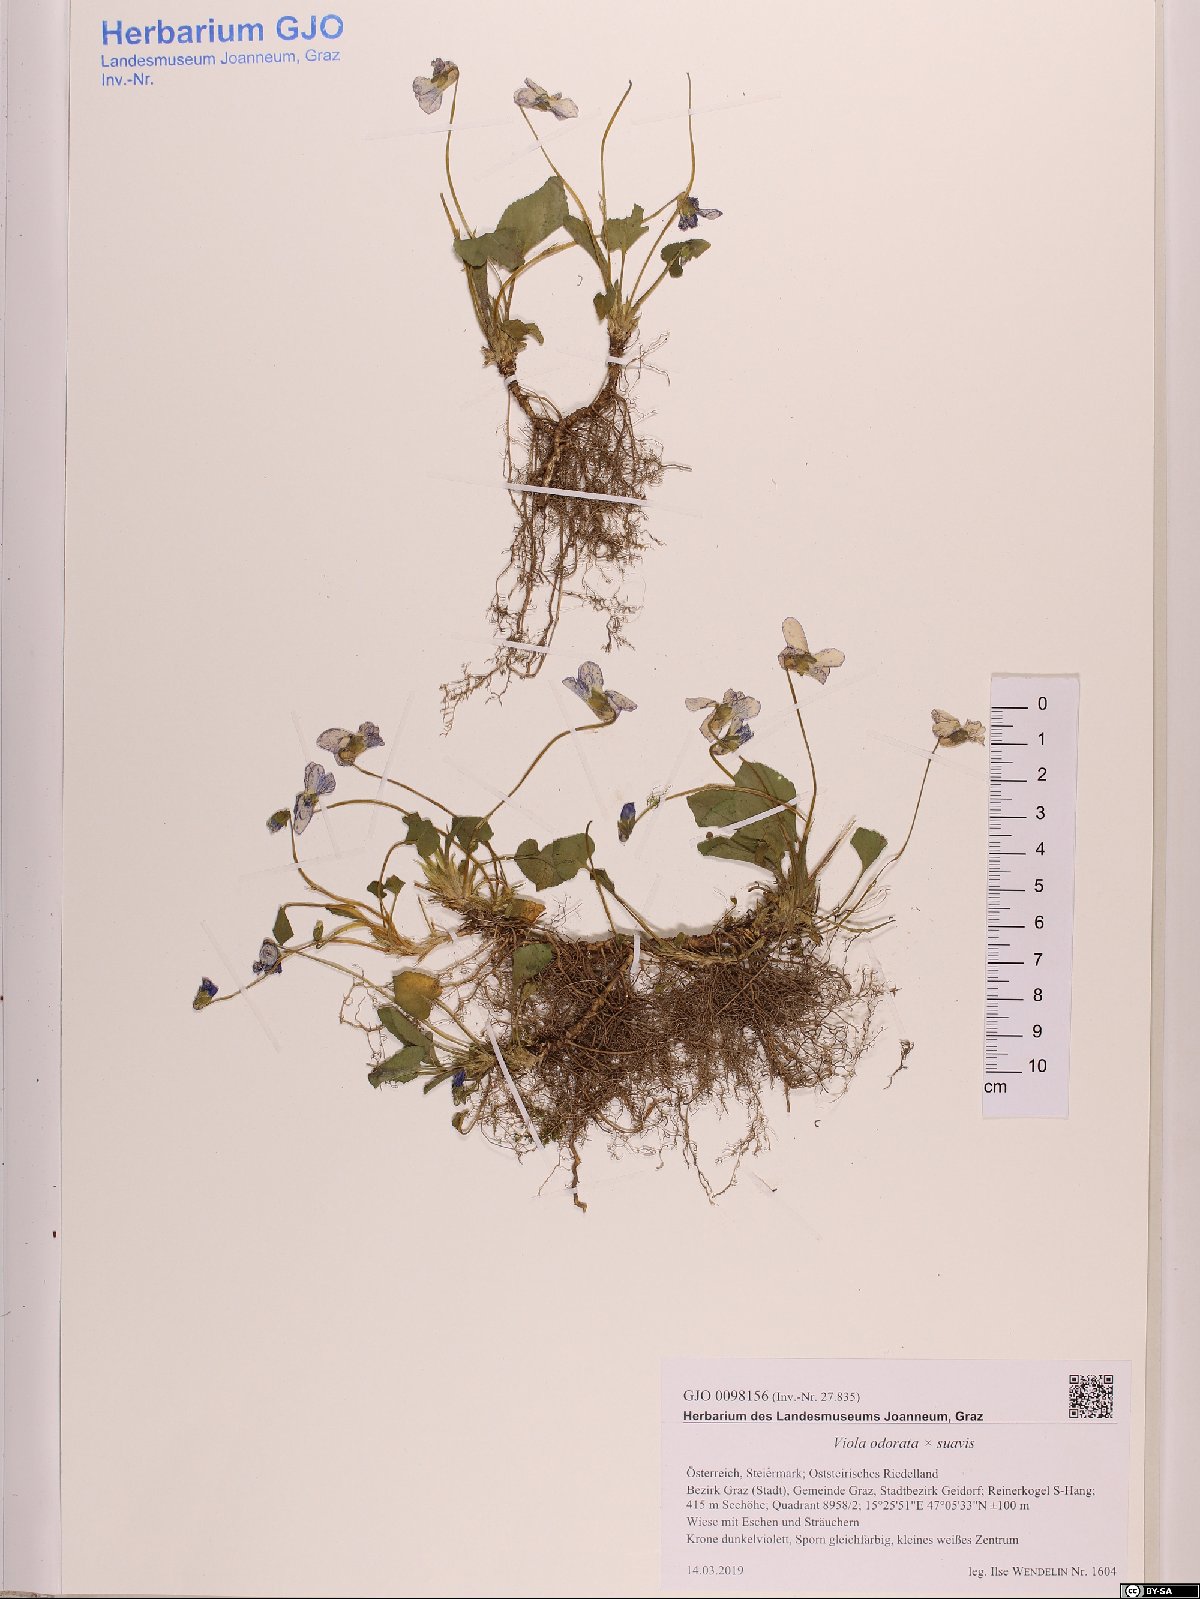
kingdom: Plantae
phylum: Tracheophyta
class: Magnoliopsida
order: Malpighiales
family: Violaceae
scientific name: Violaceae
